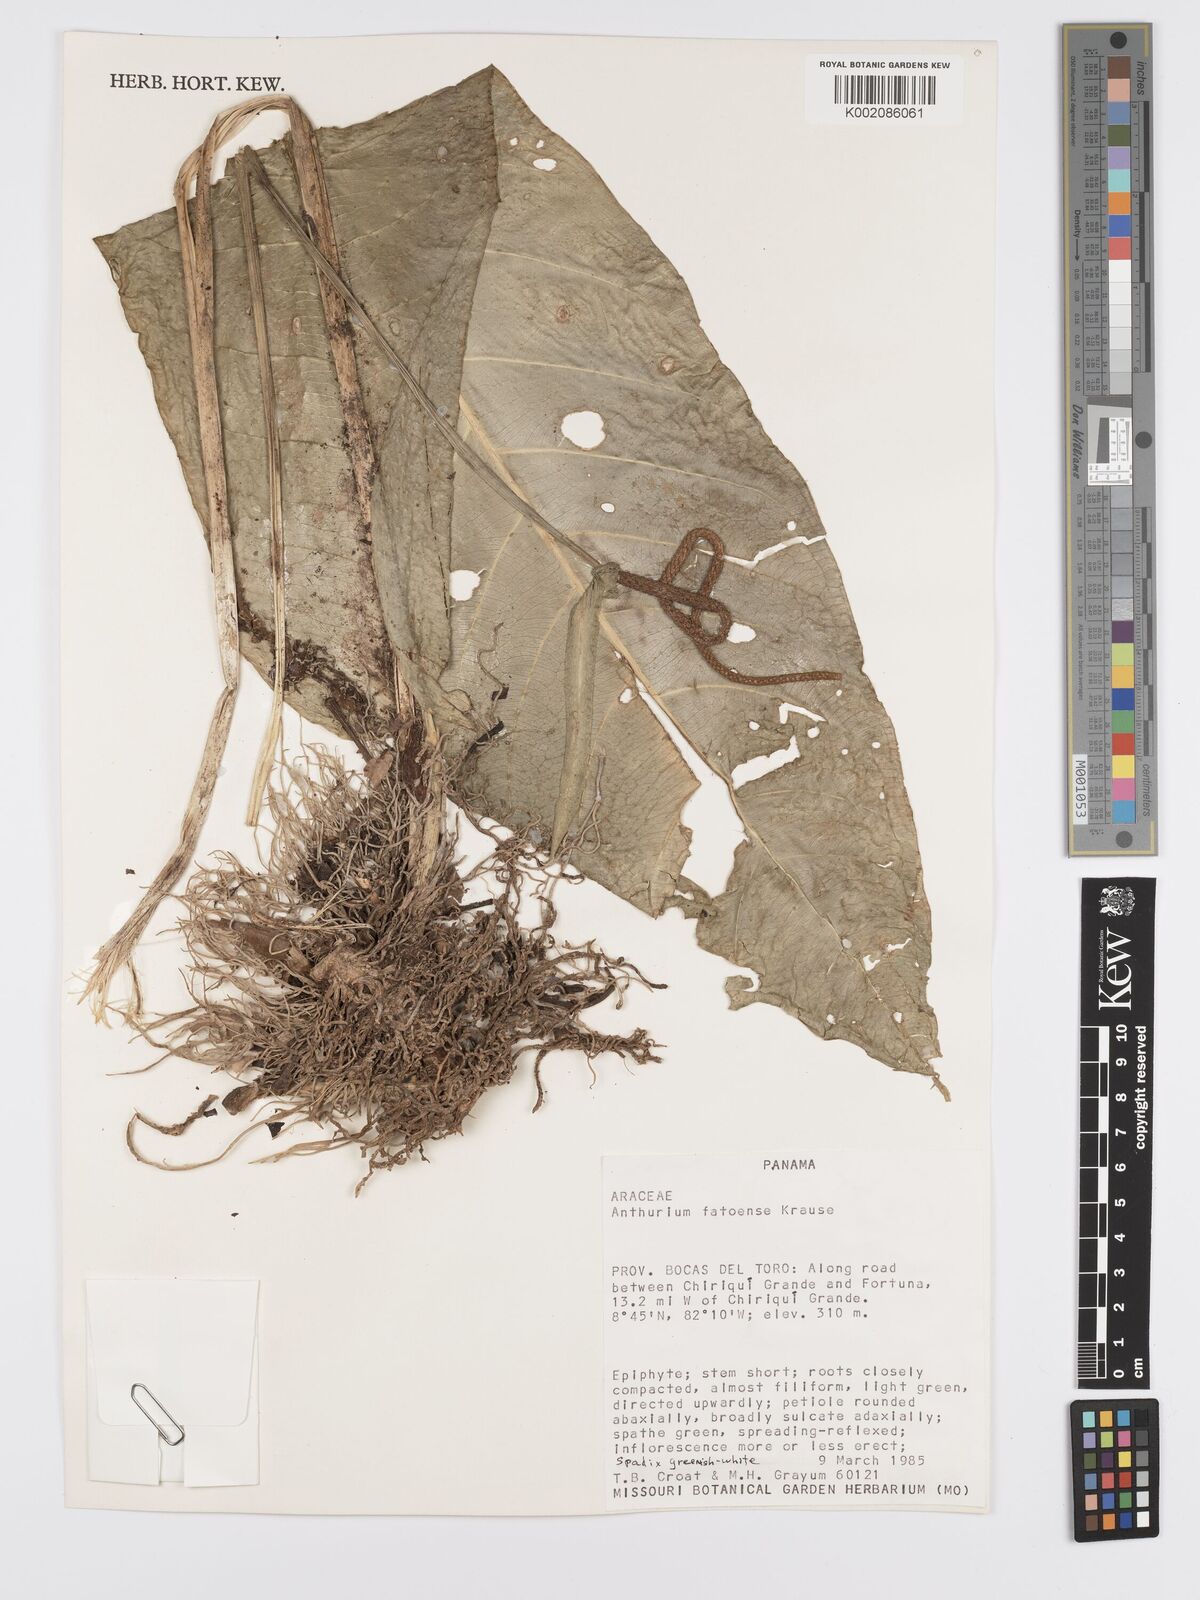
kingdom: Plantae
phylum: Tracheophyta
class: Liliopsida
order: Alismatales
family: Araceae
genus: Anthurium
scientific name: Anthurium fatoense
